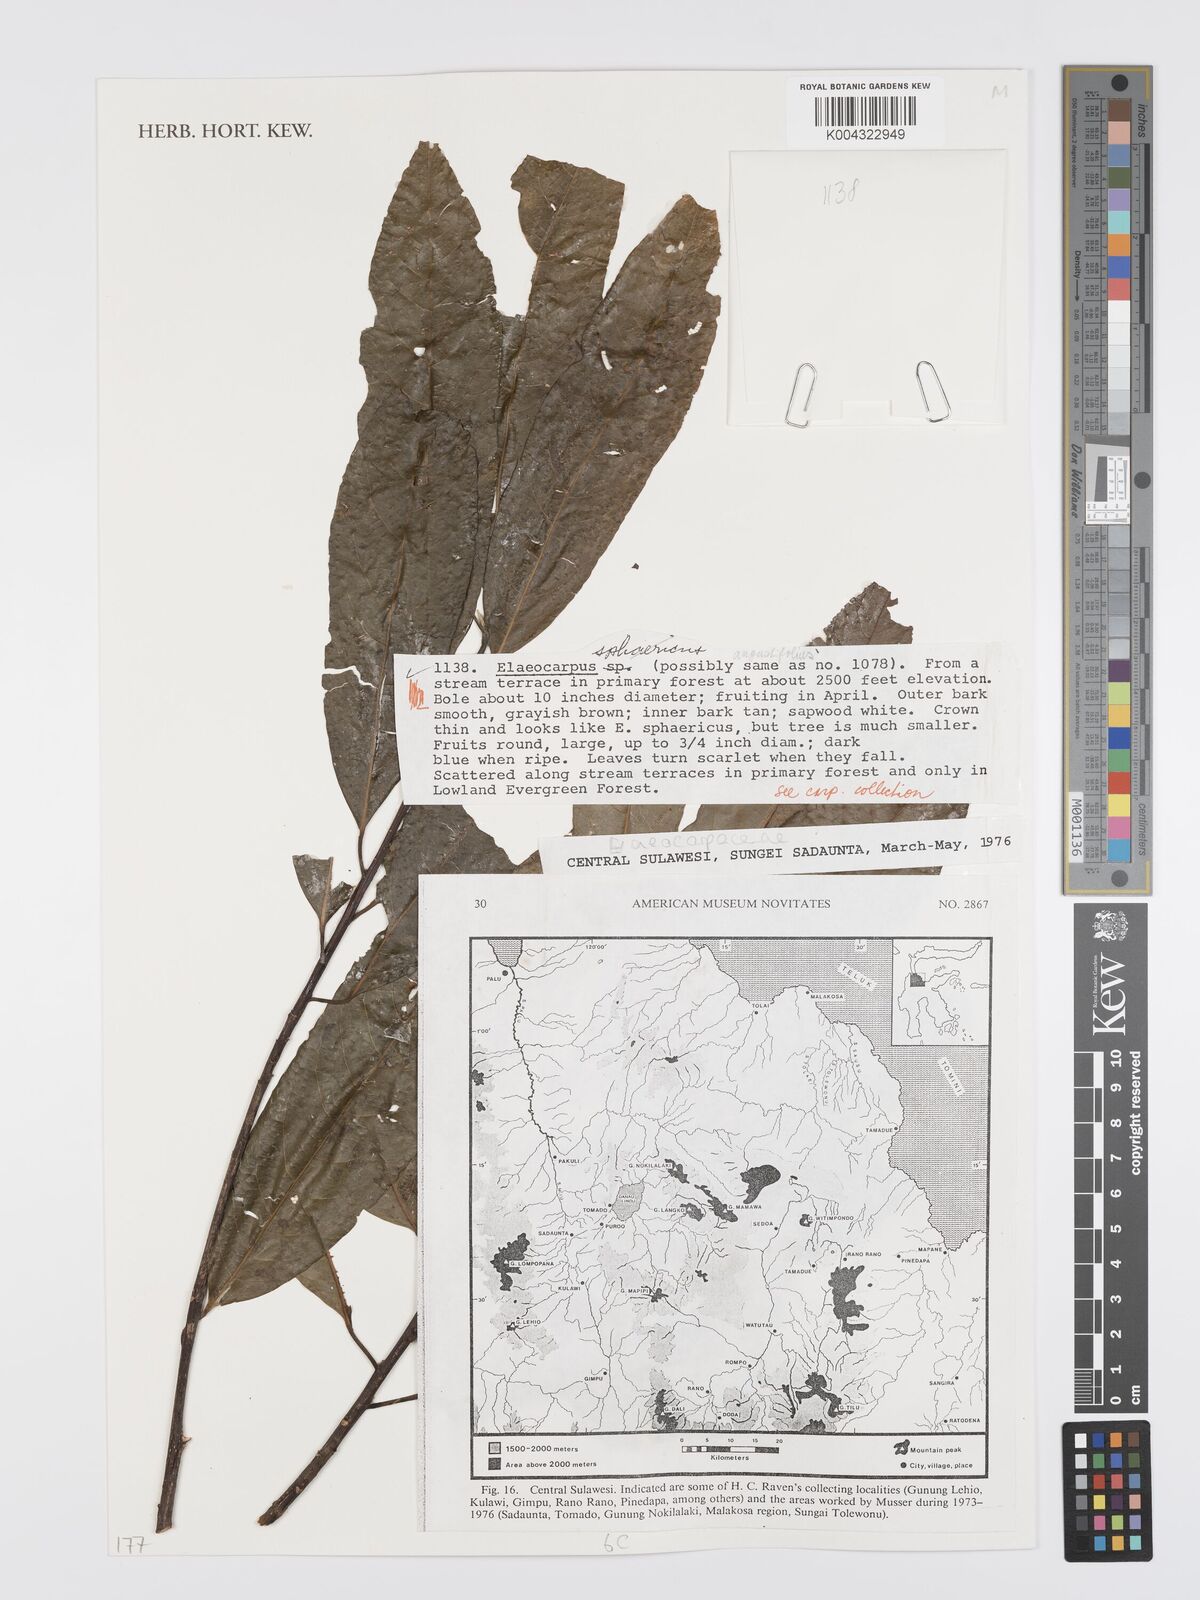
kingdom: Plantae
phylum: Tracheophyta
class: Magnoliopsida
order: Oxalidales
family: Elaeocarpaceae
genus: Elaeocarpus
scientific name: Elaeocarpus
